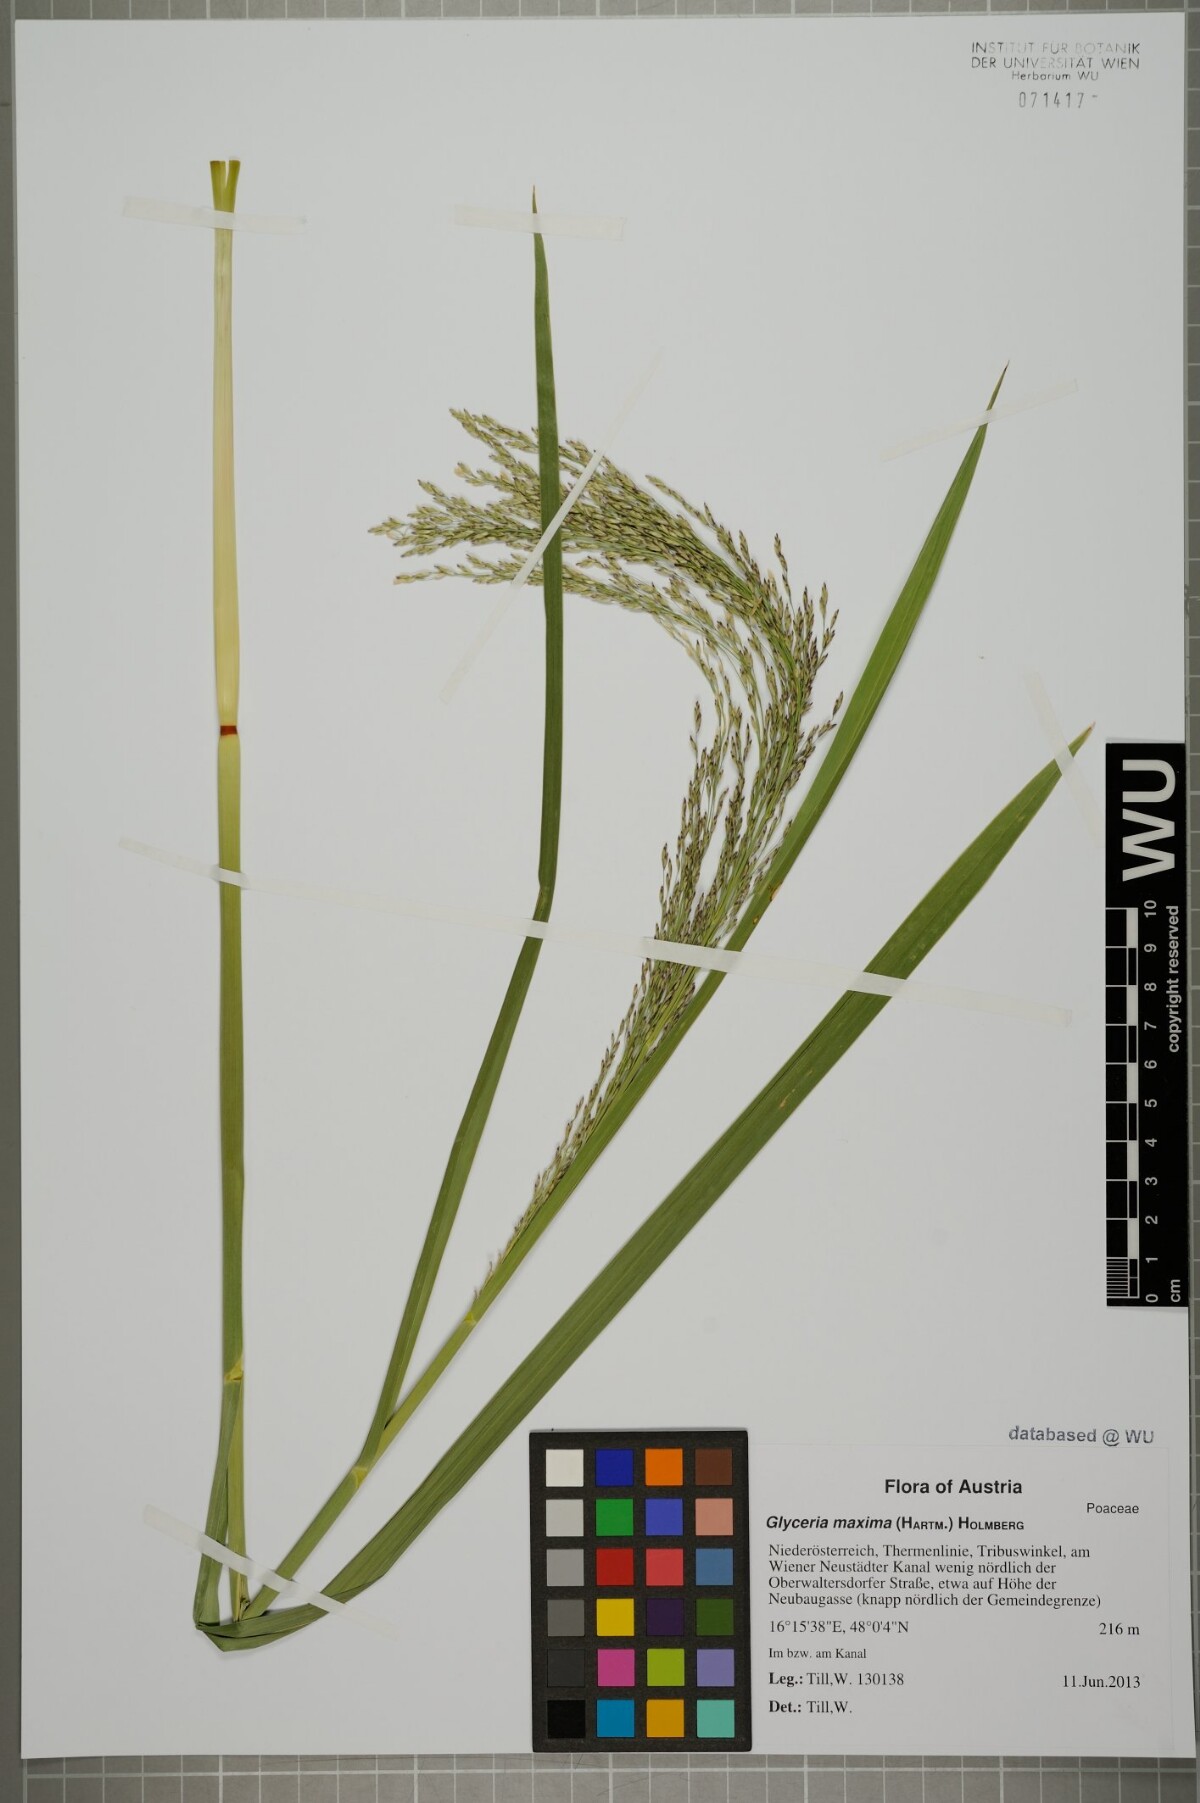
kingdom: Plantae
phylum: Tracheophyta
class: Liliopsida
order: Poales
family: Poaceae
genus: Glyceria
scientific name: Glyceria maxima
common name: Reed mannagrass
